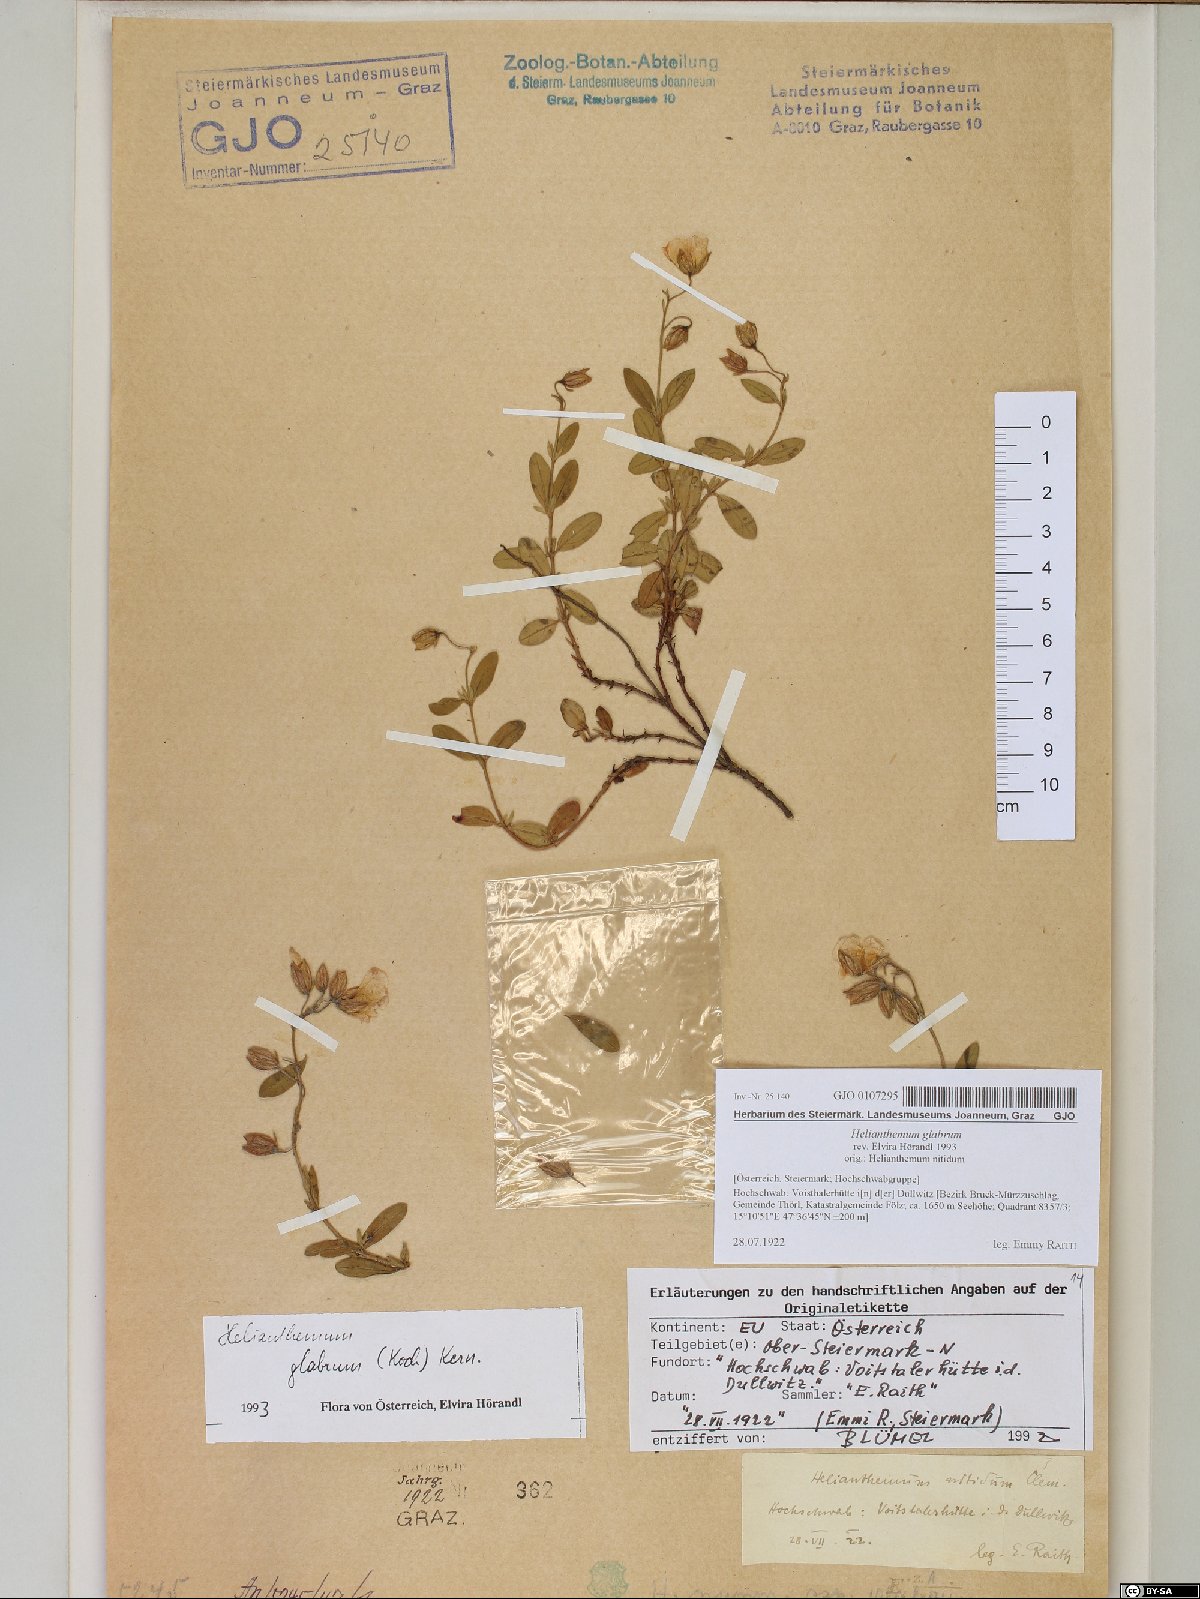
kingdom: Plantae
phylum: Tracheophyta
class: Magnoliopsida
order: Malvales
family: Cistaceae
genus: Helianthemum
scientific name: Helianthemum nummularium
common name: Common rock-rose
